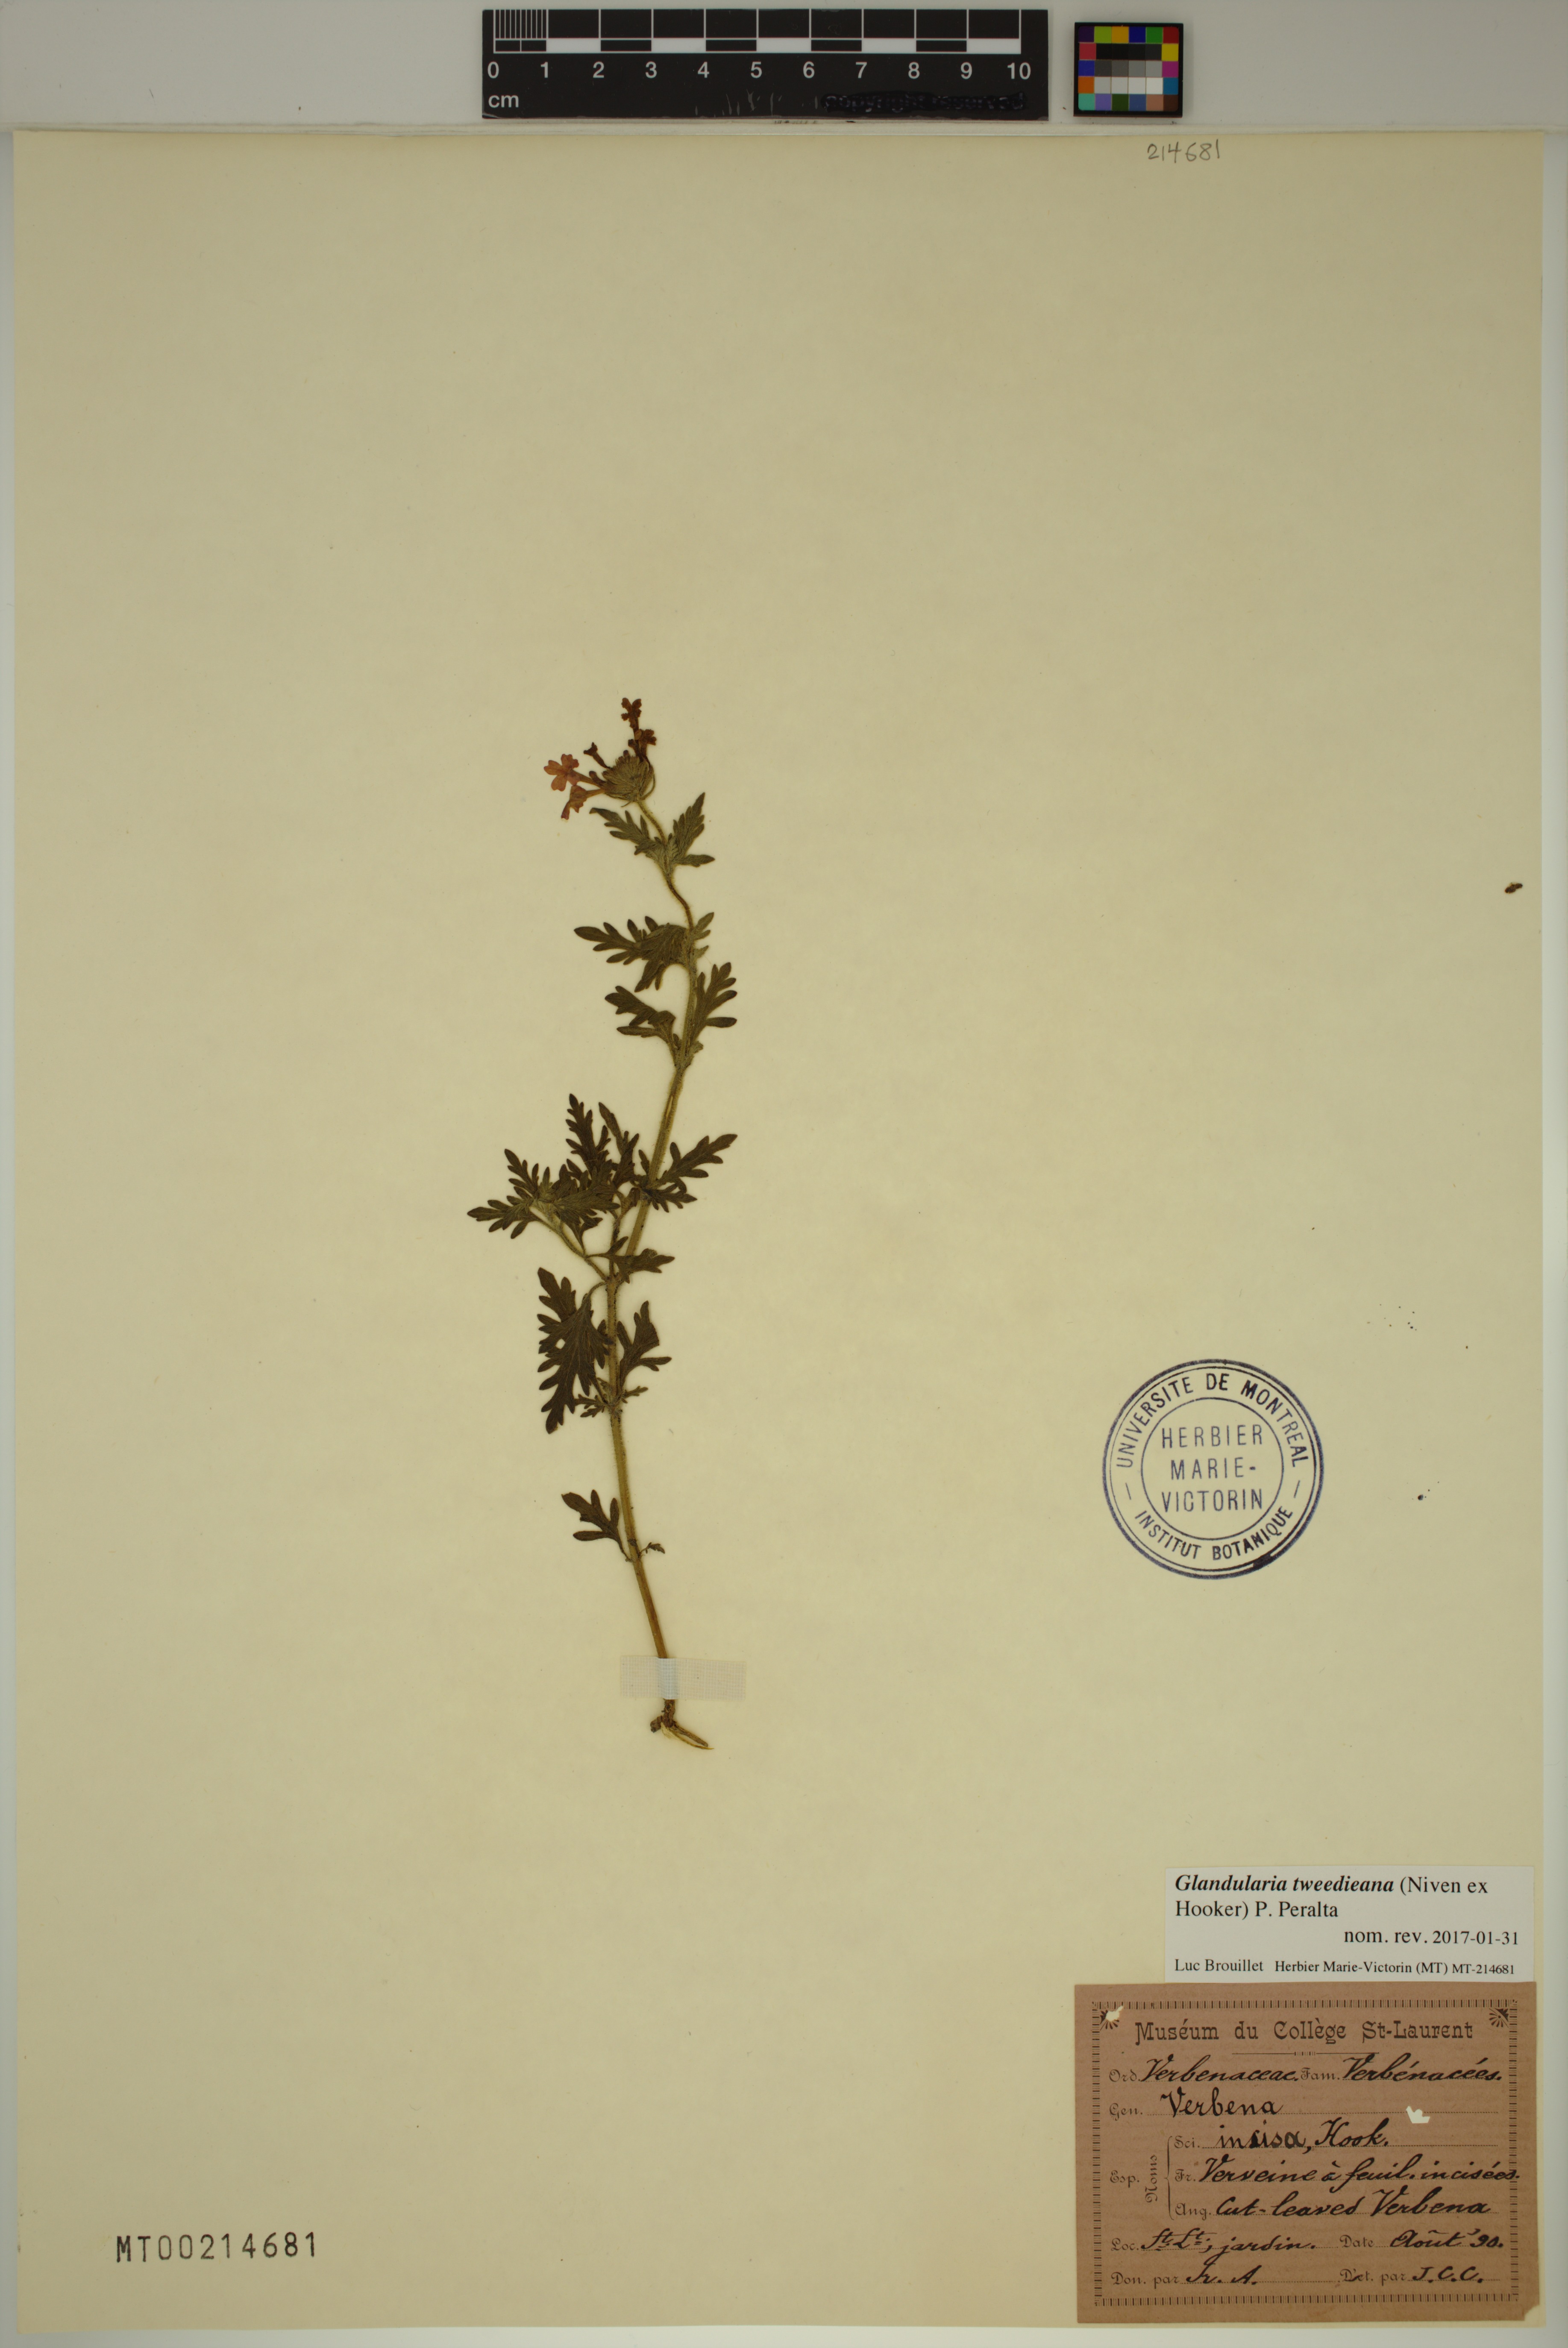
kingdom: Plantae
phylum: Tracheophyta
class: Magnoliopsida
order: Lamiales
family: Verbenaceae
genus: Verbena
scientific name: Verbena tweedieana
